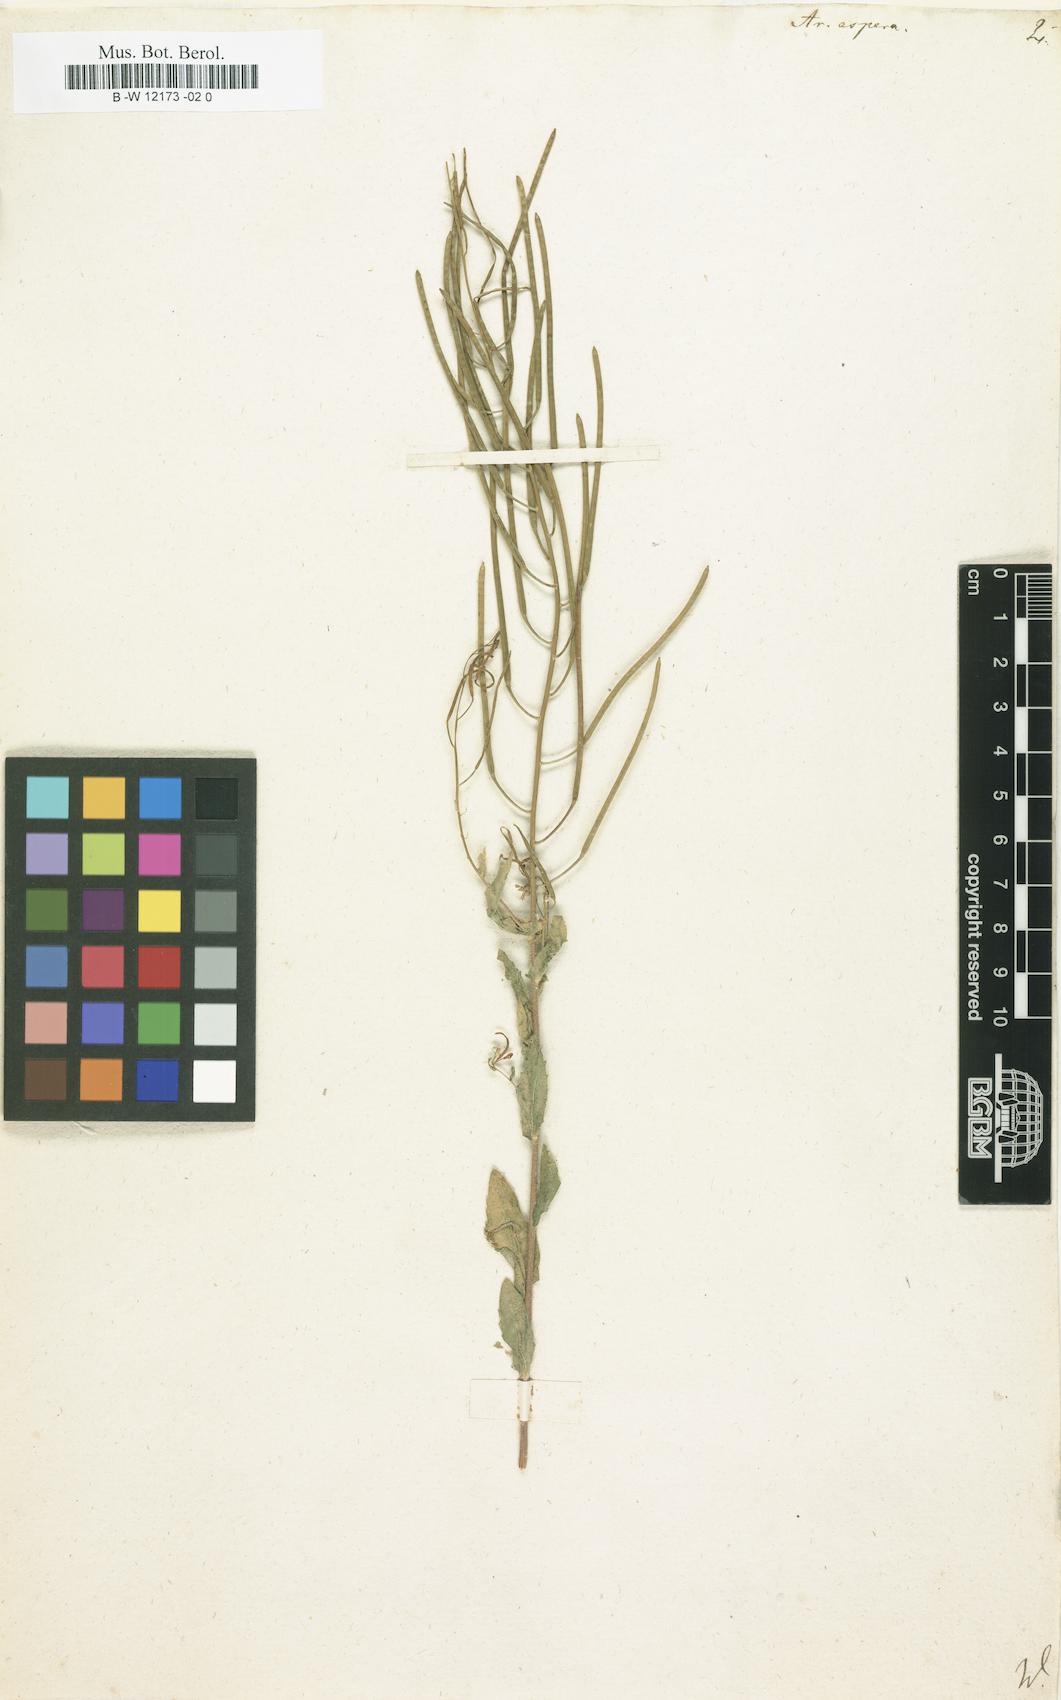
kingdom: Plantae
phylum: Tracheophyta
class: Magnoliopsida
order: Brassicales
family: Brassicaceae
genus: Arabis
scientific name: Arabis auriculata
